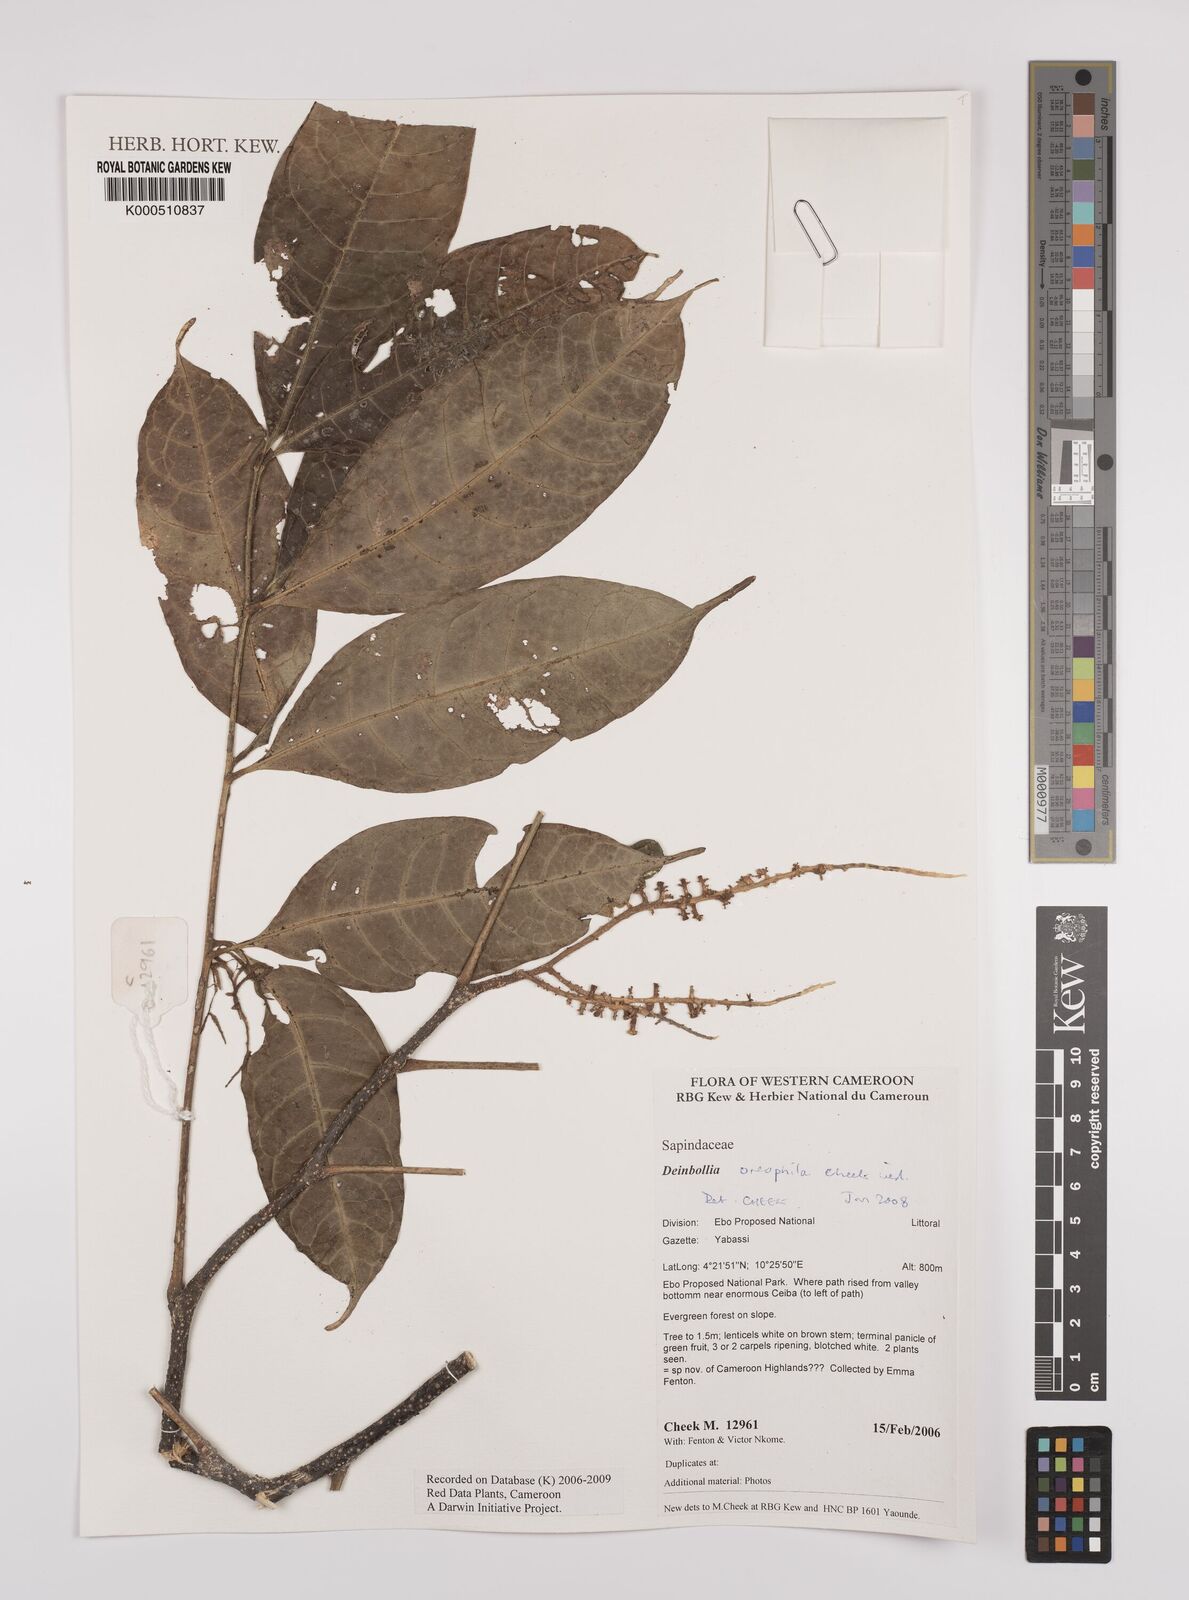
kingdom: Plantae
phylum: Tracheophyta
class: Magnoliopsida
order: Sapindales
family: Sapindaceae
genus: Deinbollia
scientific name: Deinbollia oreophila
